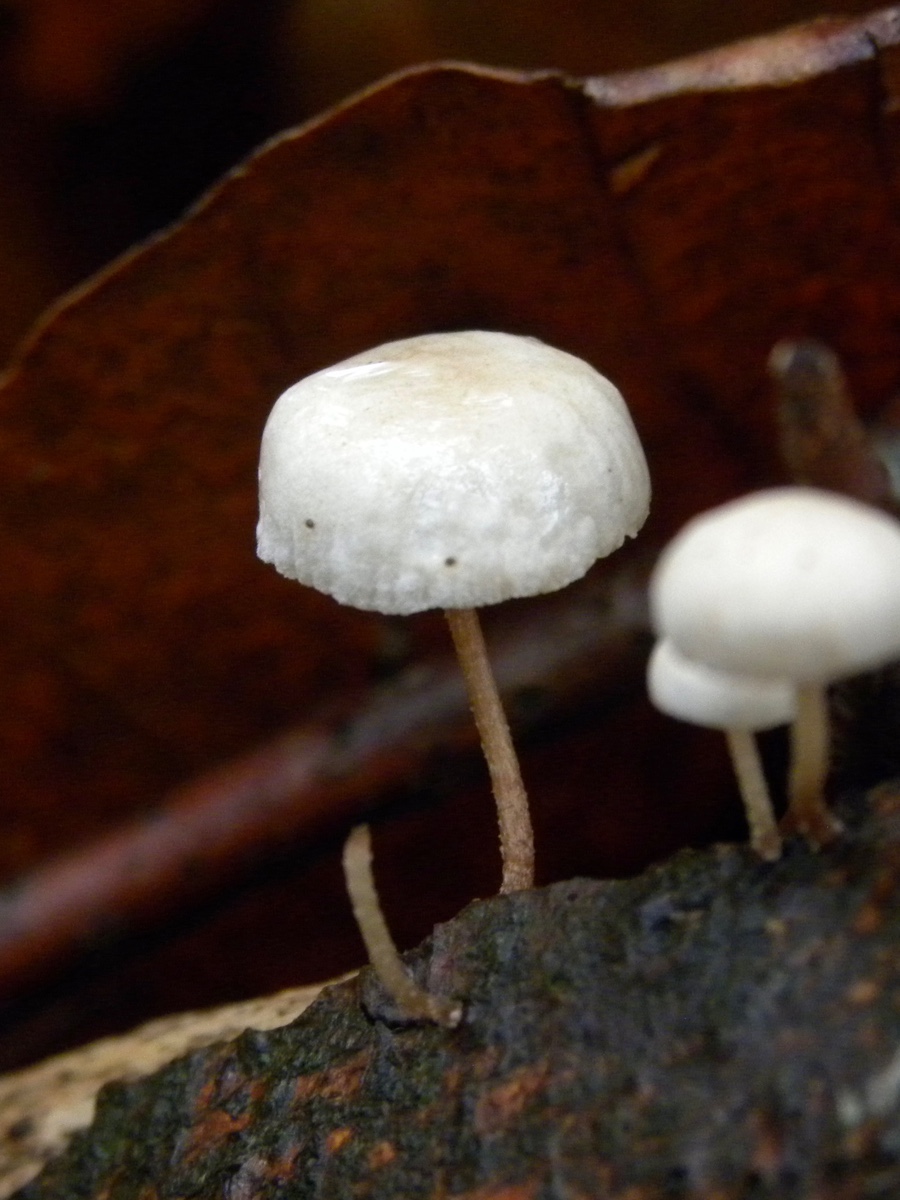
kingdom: Fungi
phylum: Basidiomycota
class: Agaricomycetes
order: Agaricales
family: Omphalotaceae
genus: Collybiopsis
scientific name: Collybiopsis ramealis
